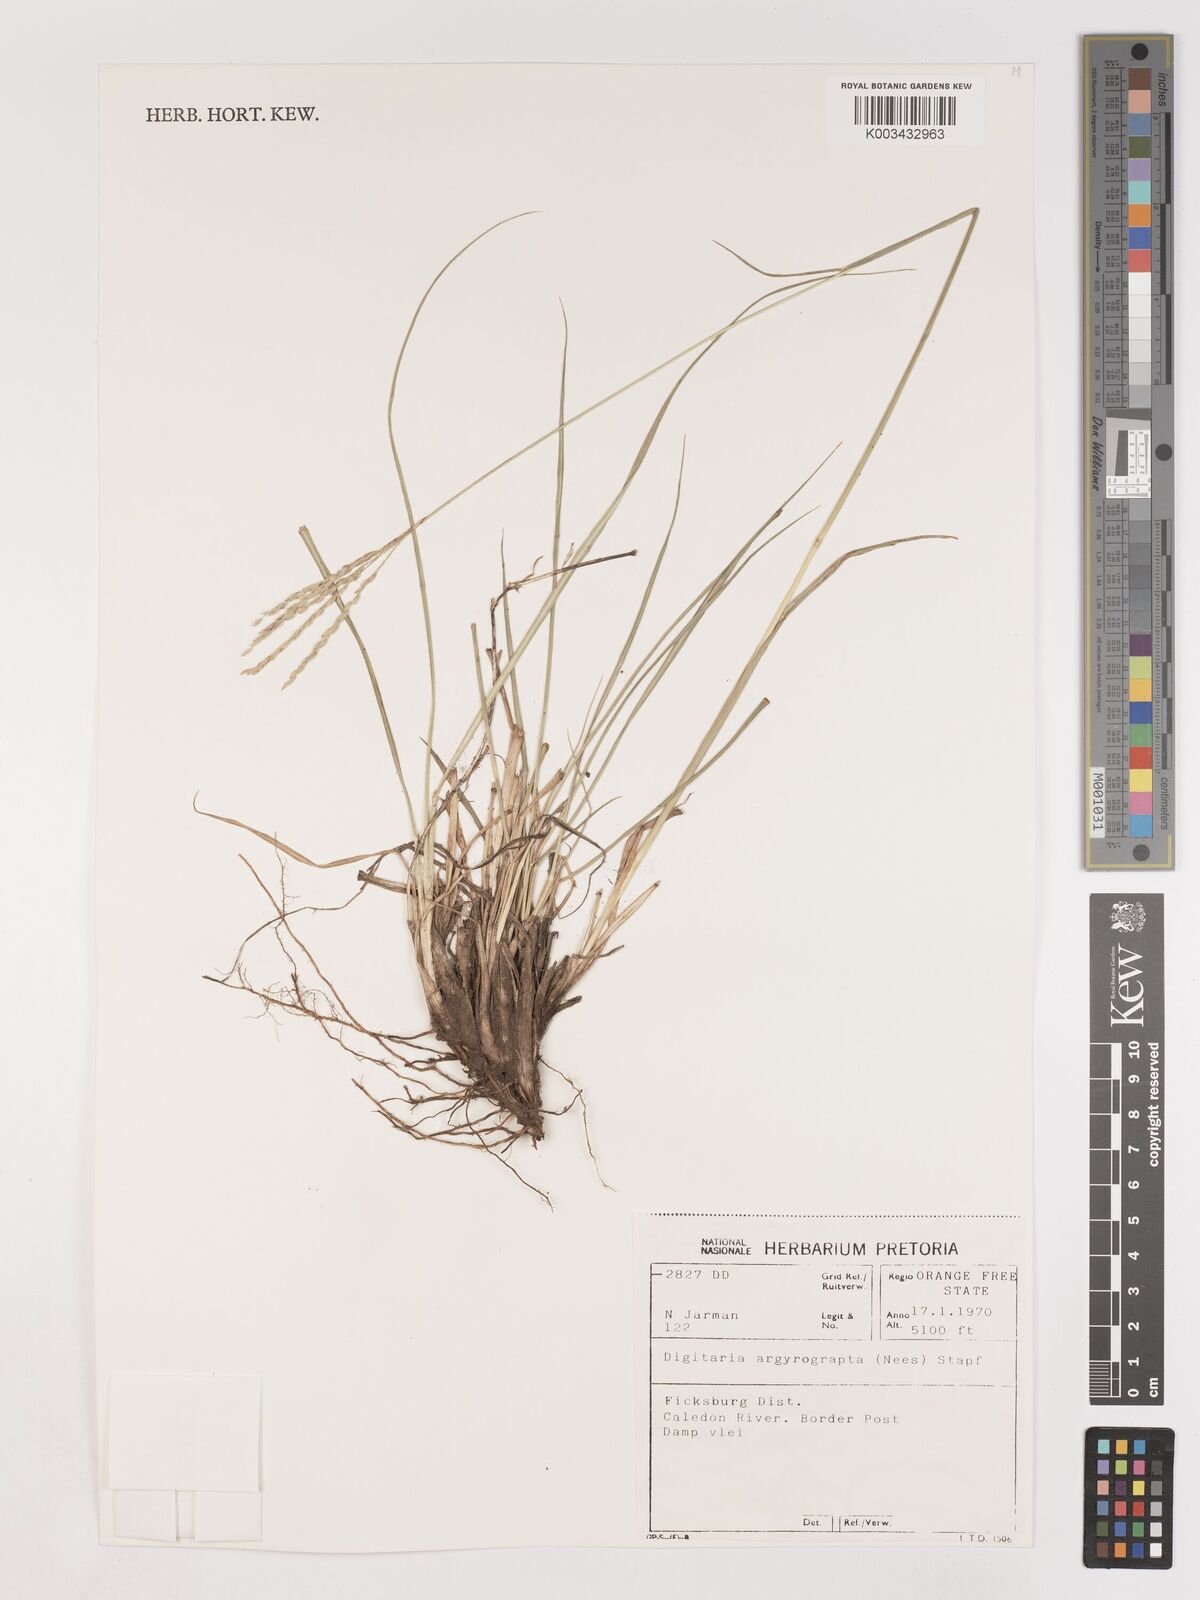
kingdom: Plantae
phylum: Tracheophyta
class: Liliopsida
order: Poales
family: Poaceae
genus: Digitaria
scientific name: Digitaria argyrograpta
